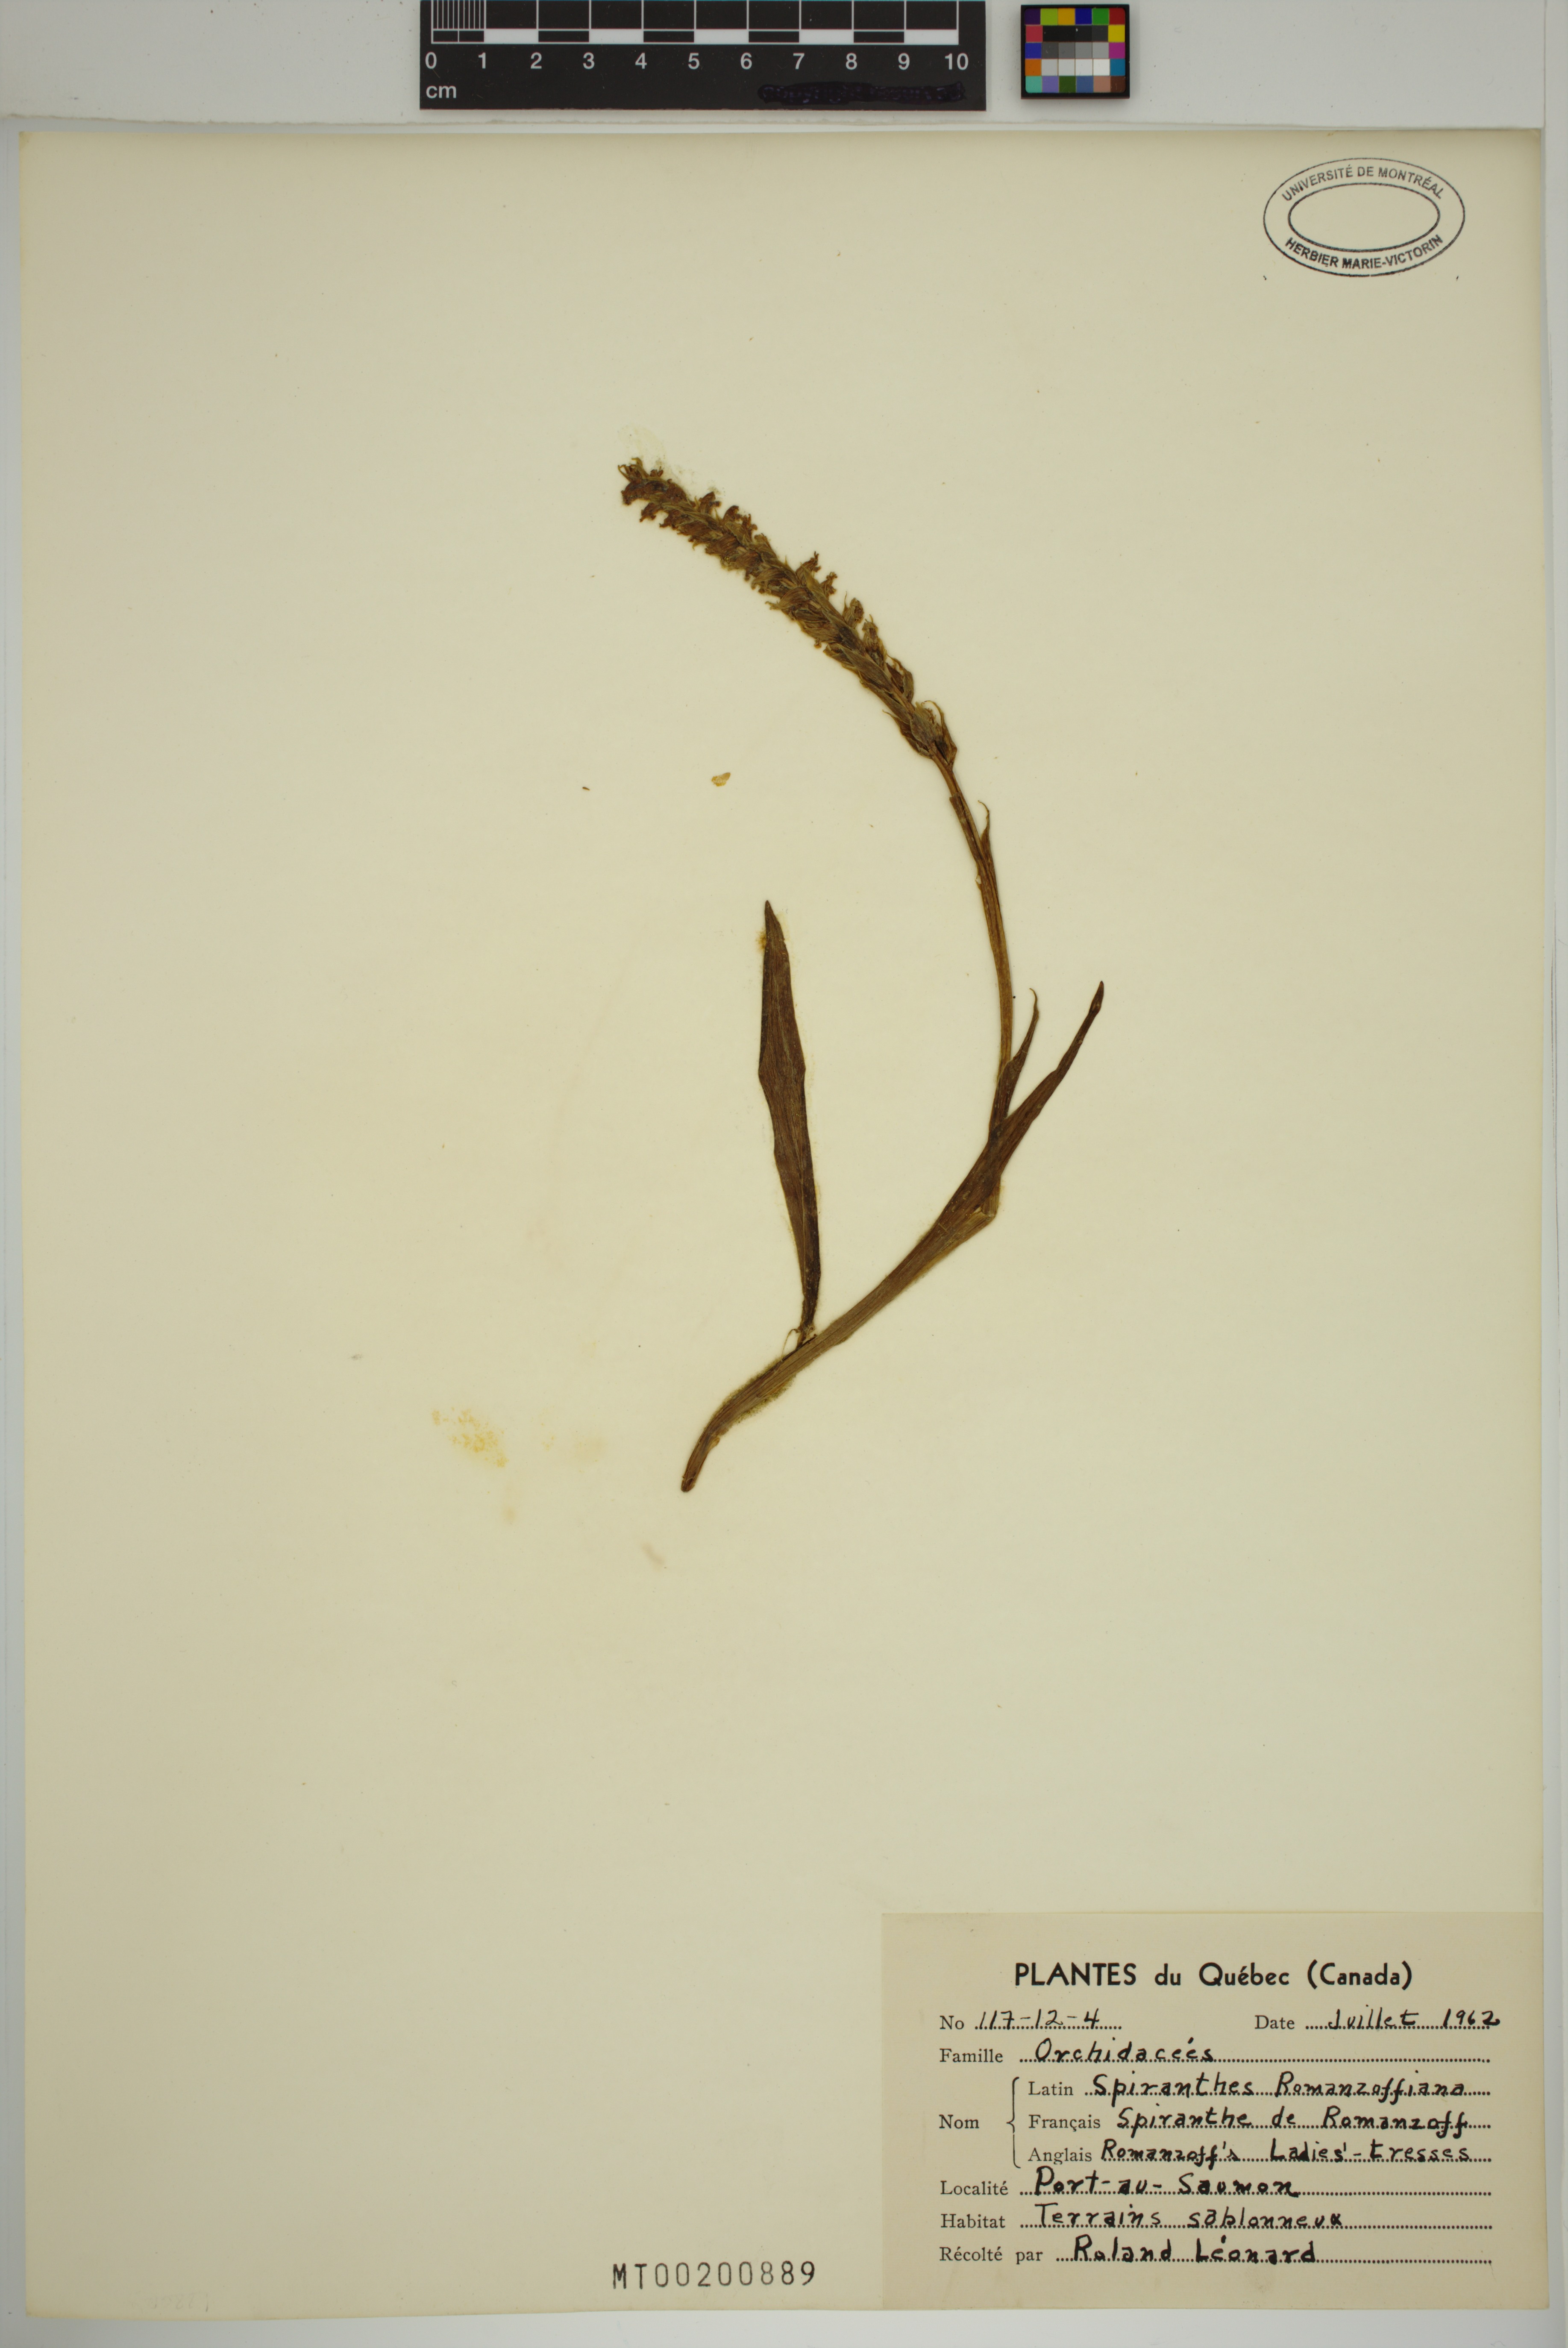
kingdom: Plantae
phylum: Tracheophyta
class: Liliopsida
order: Asparagales
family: Orchidaceae
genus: Spiranthes
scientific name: Spiranthes romanzoffiana
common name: Irish lady's-tresses
